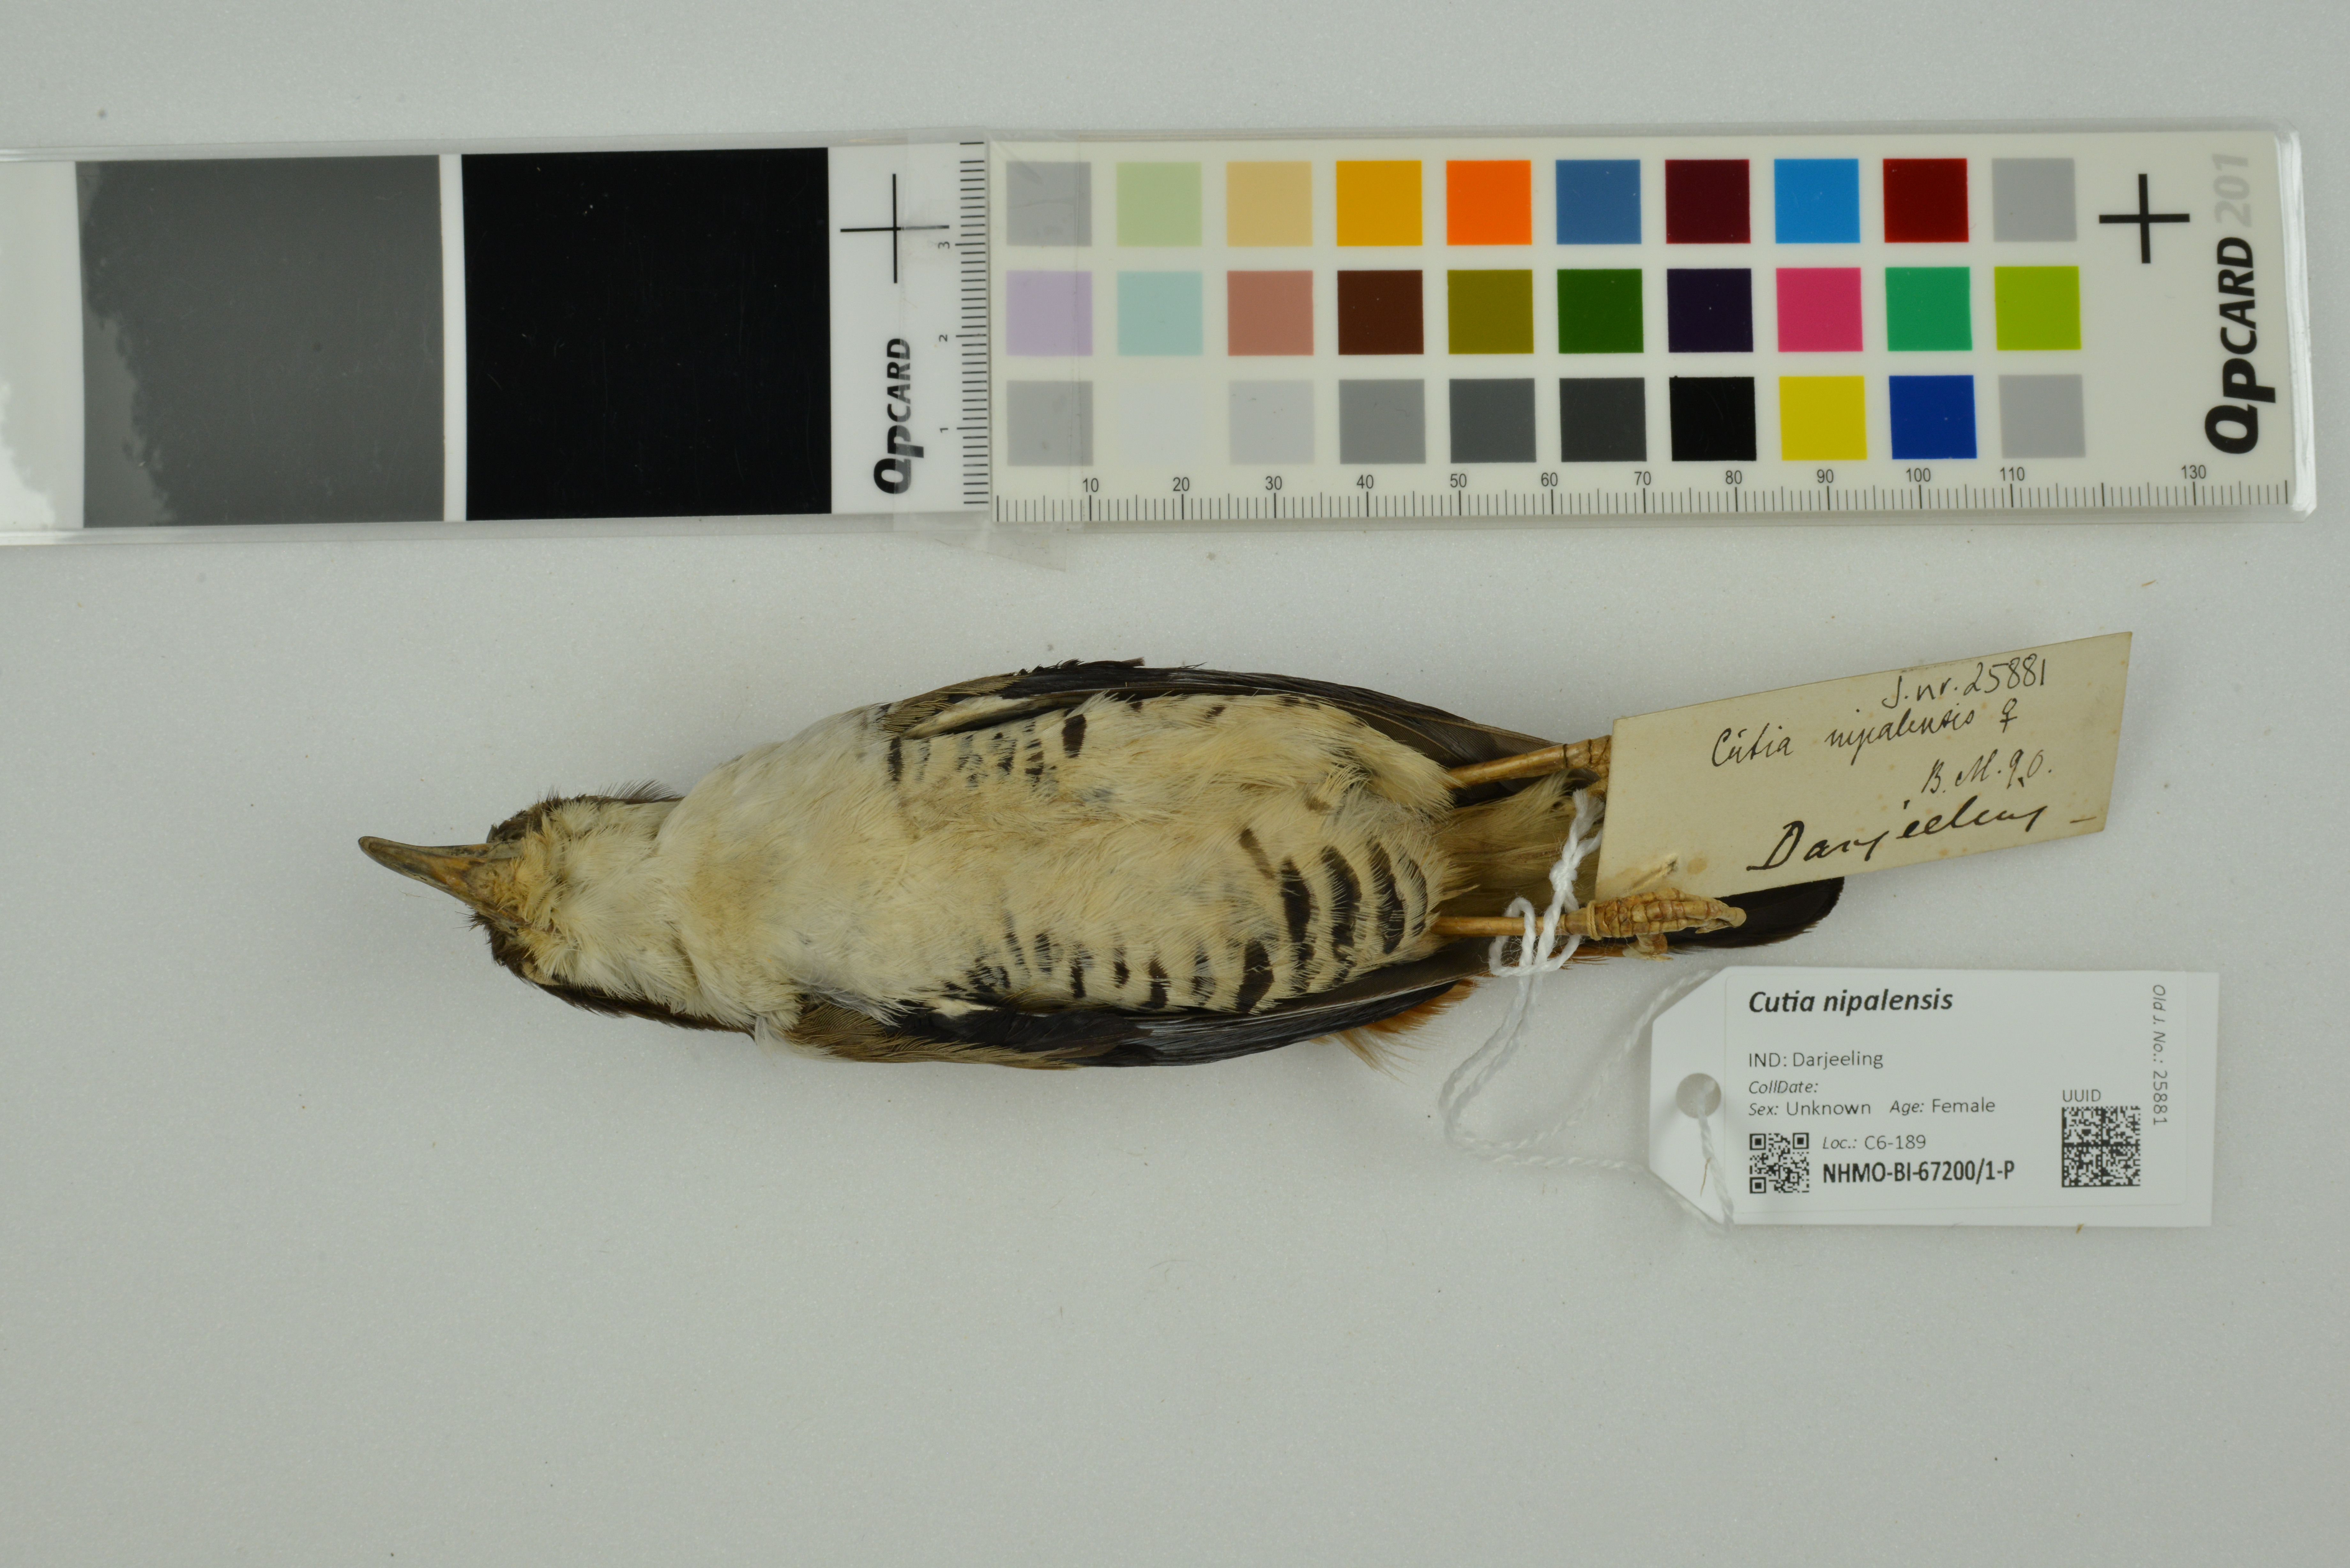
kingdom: Animalia
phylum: Chordata
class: Aves
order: Passeriformes
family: Leiothrichidae
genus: Cutia
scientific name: Cutia nipalensis
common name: Himalayan cutia
